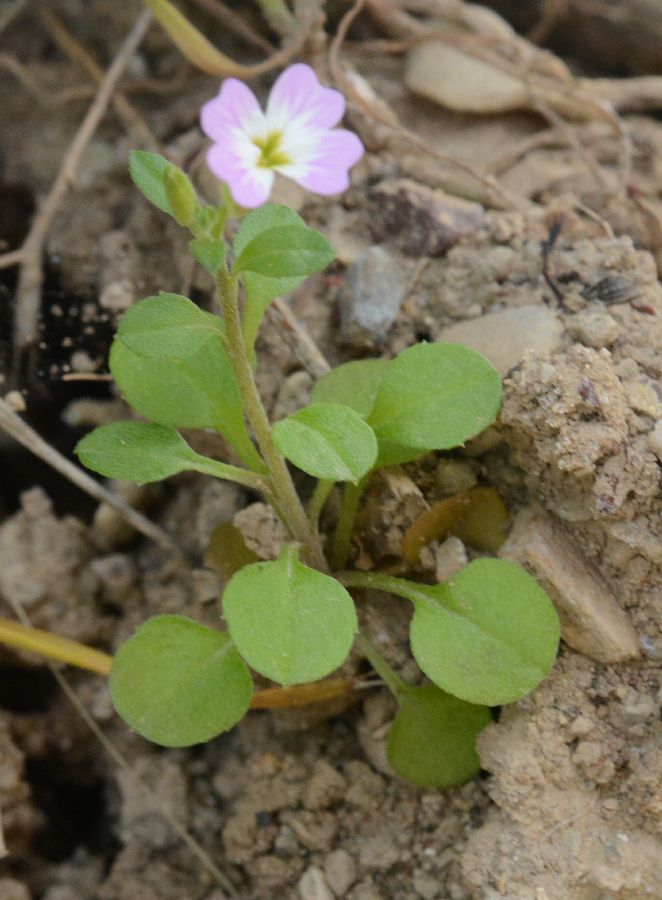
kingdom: Plantae
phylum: Tracheophyta
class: Magnoliopsida
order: Brassicales
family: Brassicaceae
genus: Malcolmia
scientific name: Malcolmia
